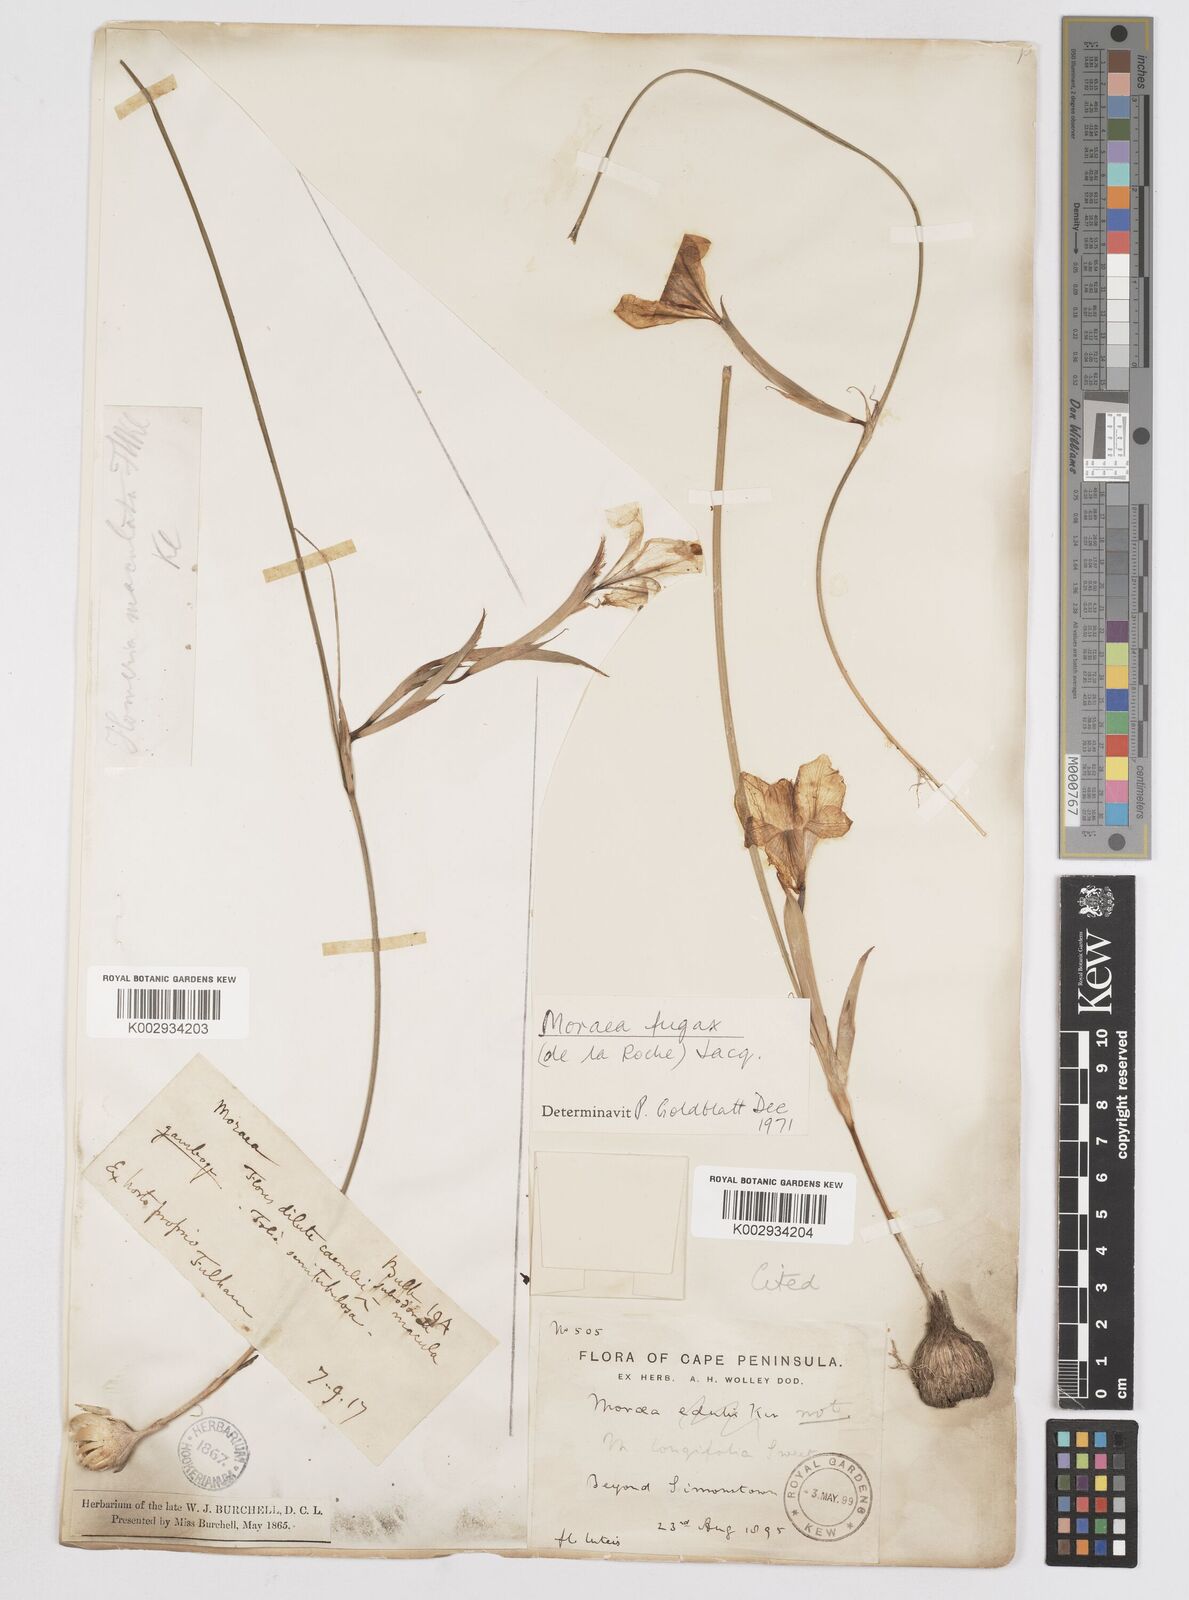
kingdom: Plantae
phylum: Tracheophyta
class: Liliopsida
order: Asparagales
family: Iridaceae
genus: Moraea
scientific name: Moraea fugax
